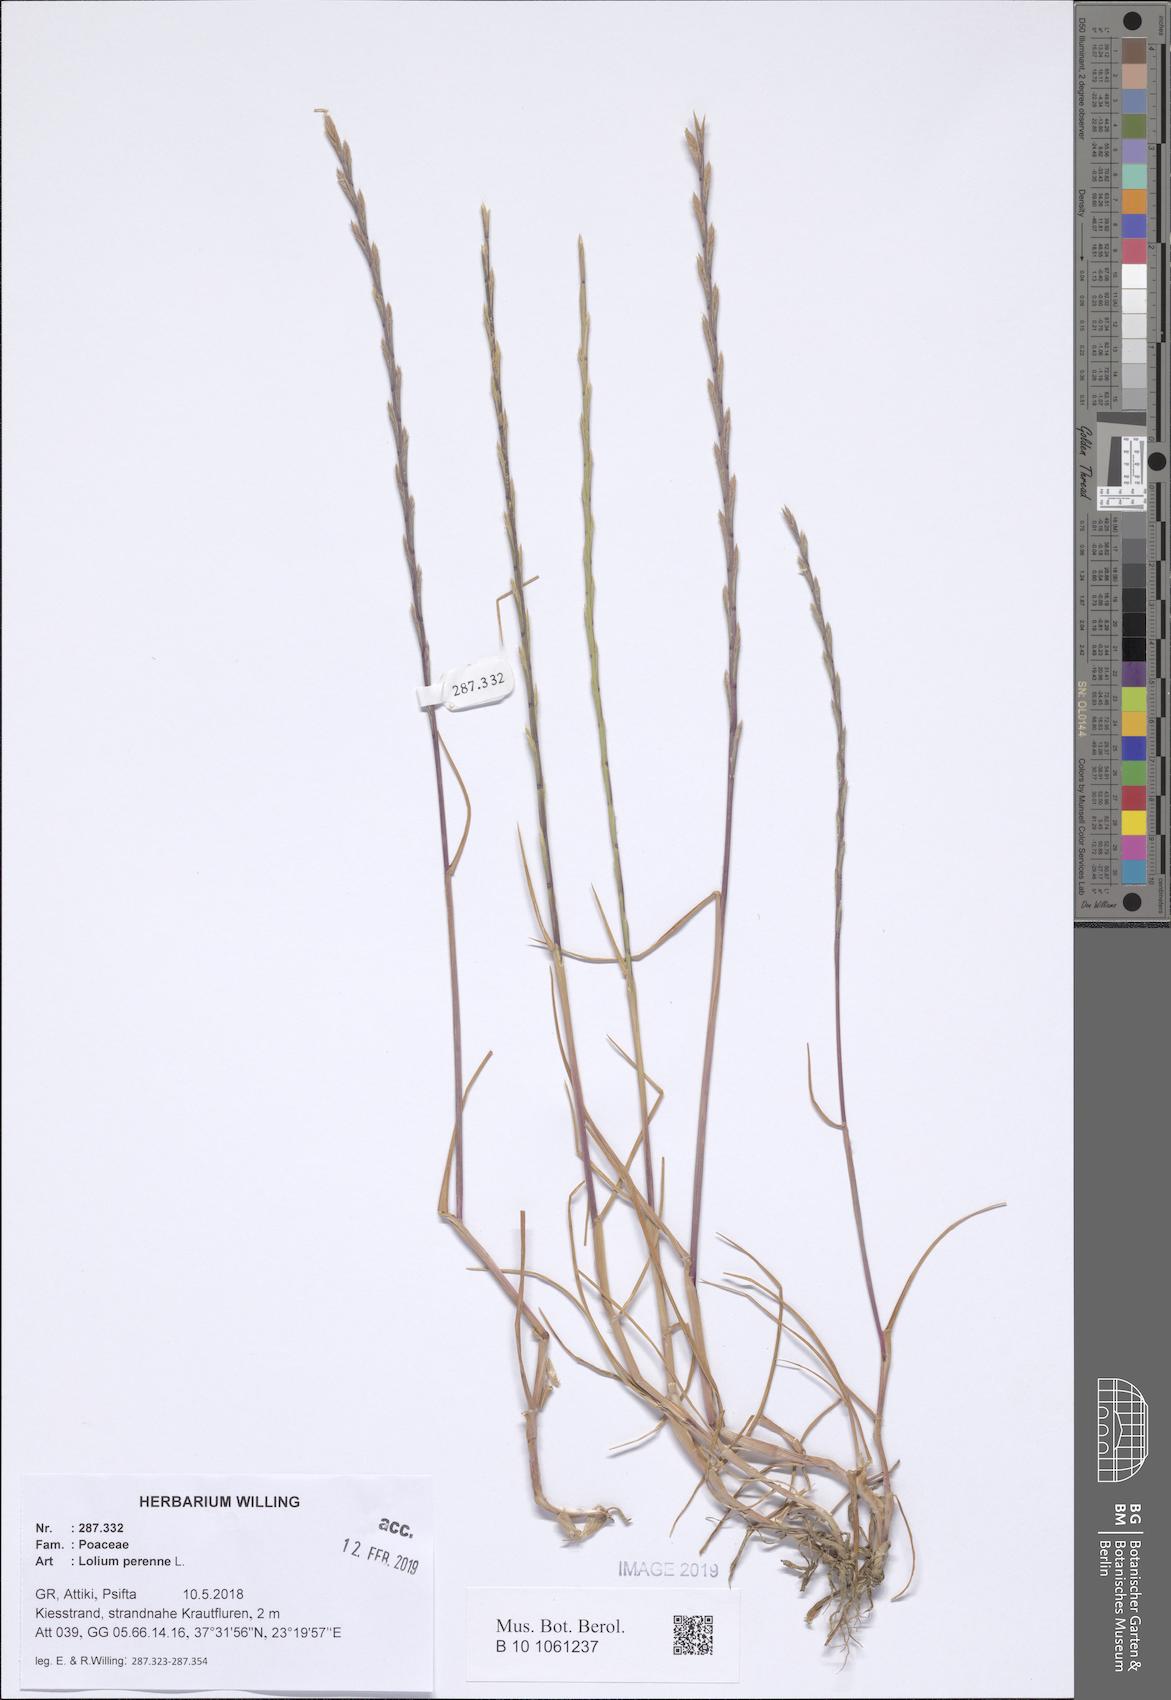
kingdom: Plantae
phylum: Tracheophyta
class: Liliopsida
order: Poales
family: Poaceae
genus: Lolium
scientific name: Lolium perenne
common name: Perennial ryegrass
